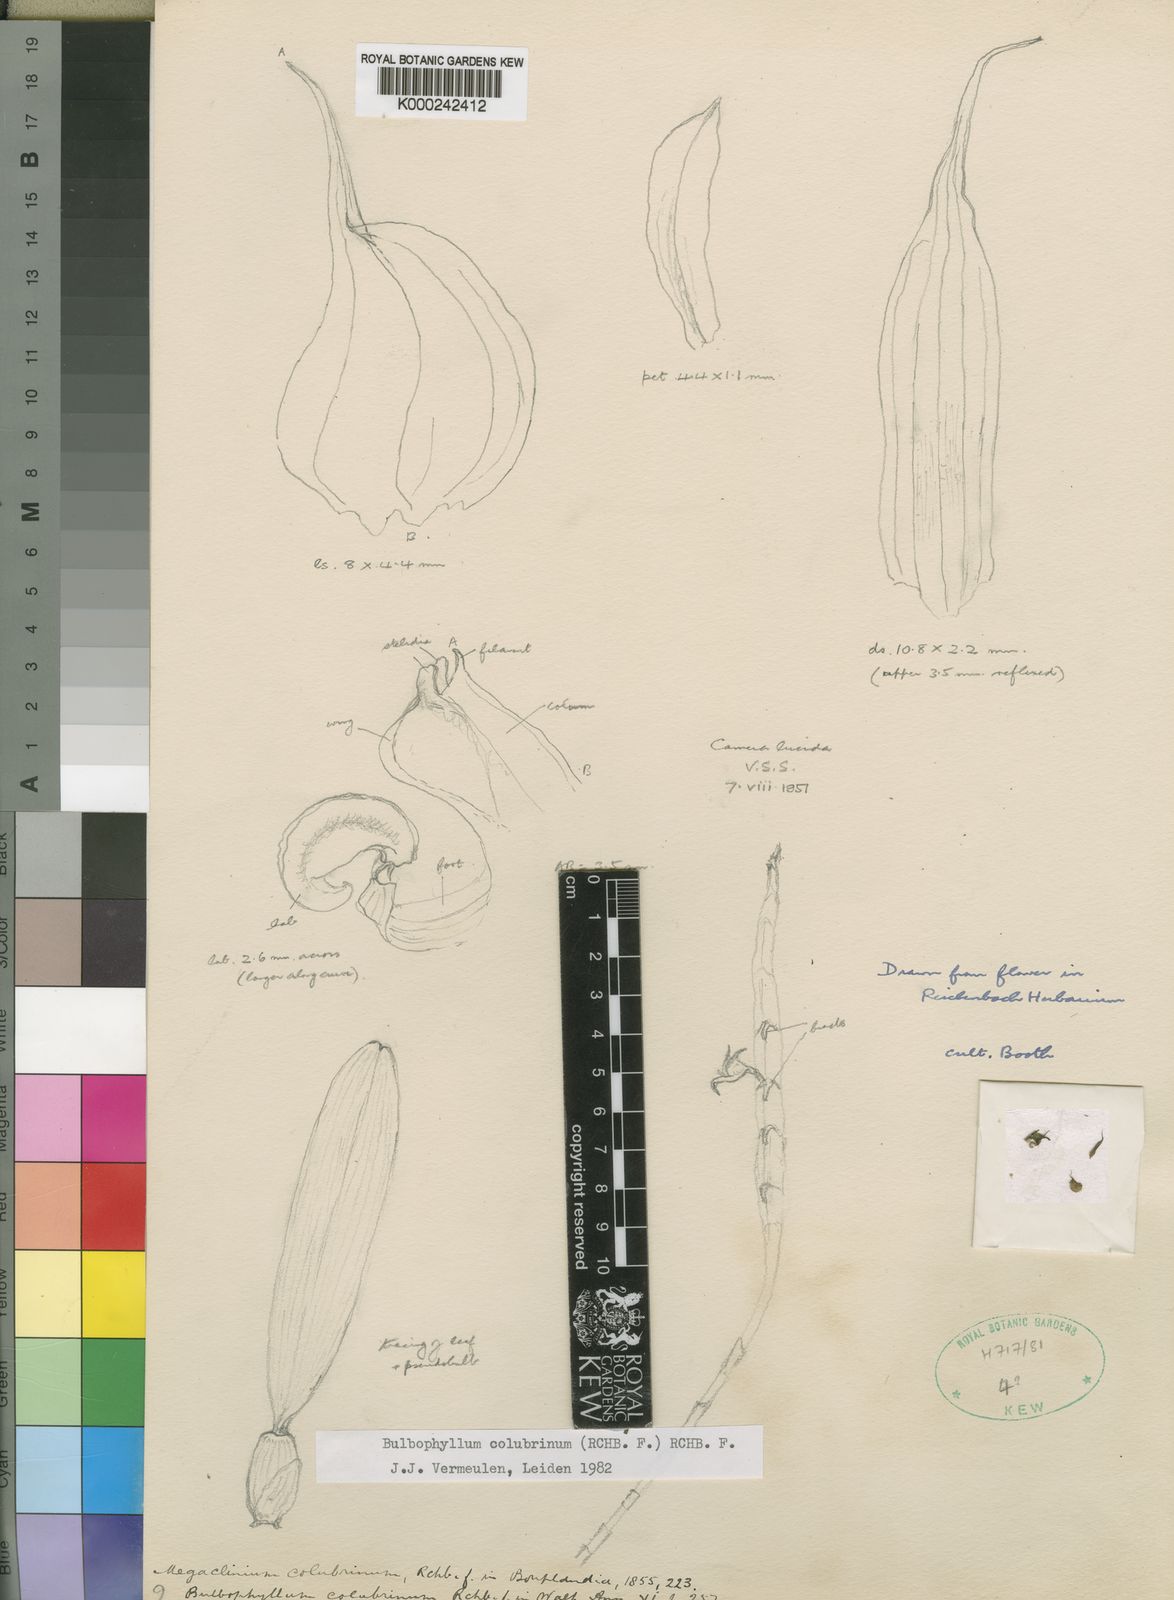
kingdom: Plantae
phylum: Tracheophyta
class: Liliopsida
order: Asparagales
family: Orchidaceae
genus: Bulbophyllum
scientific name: Bulbophyllum colubrinum
